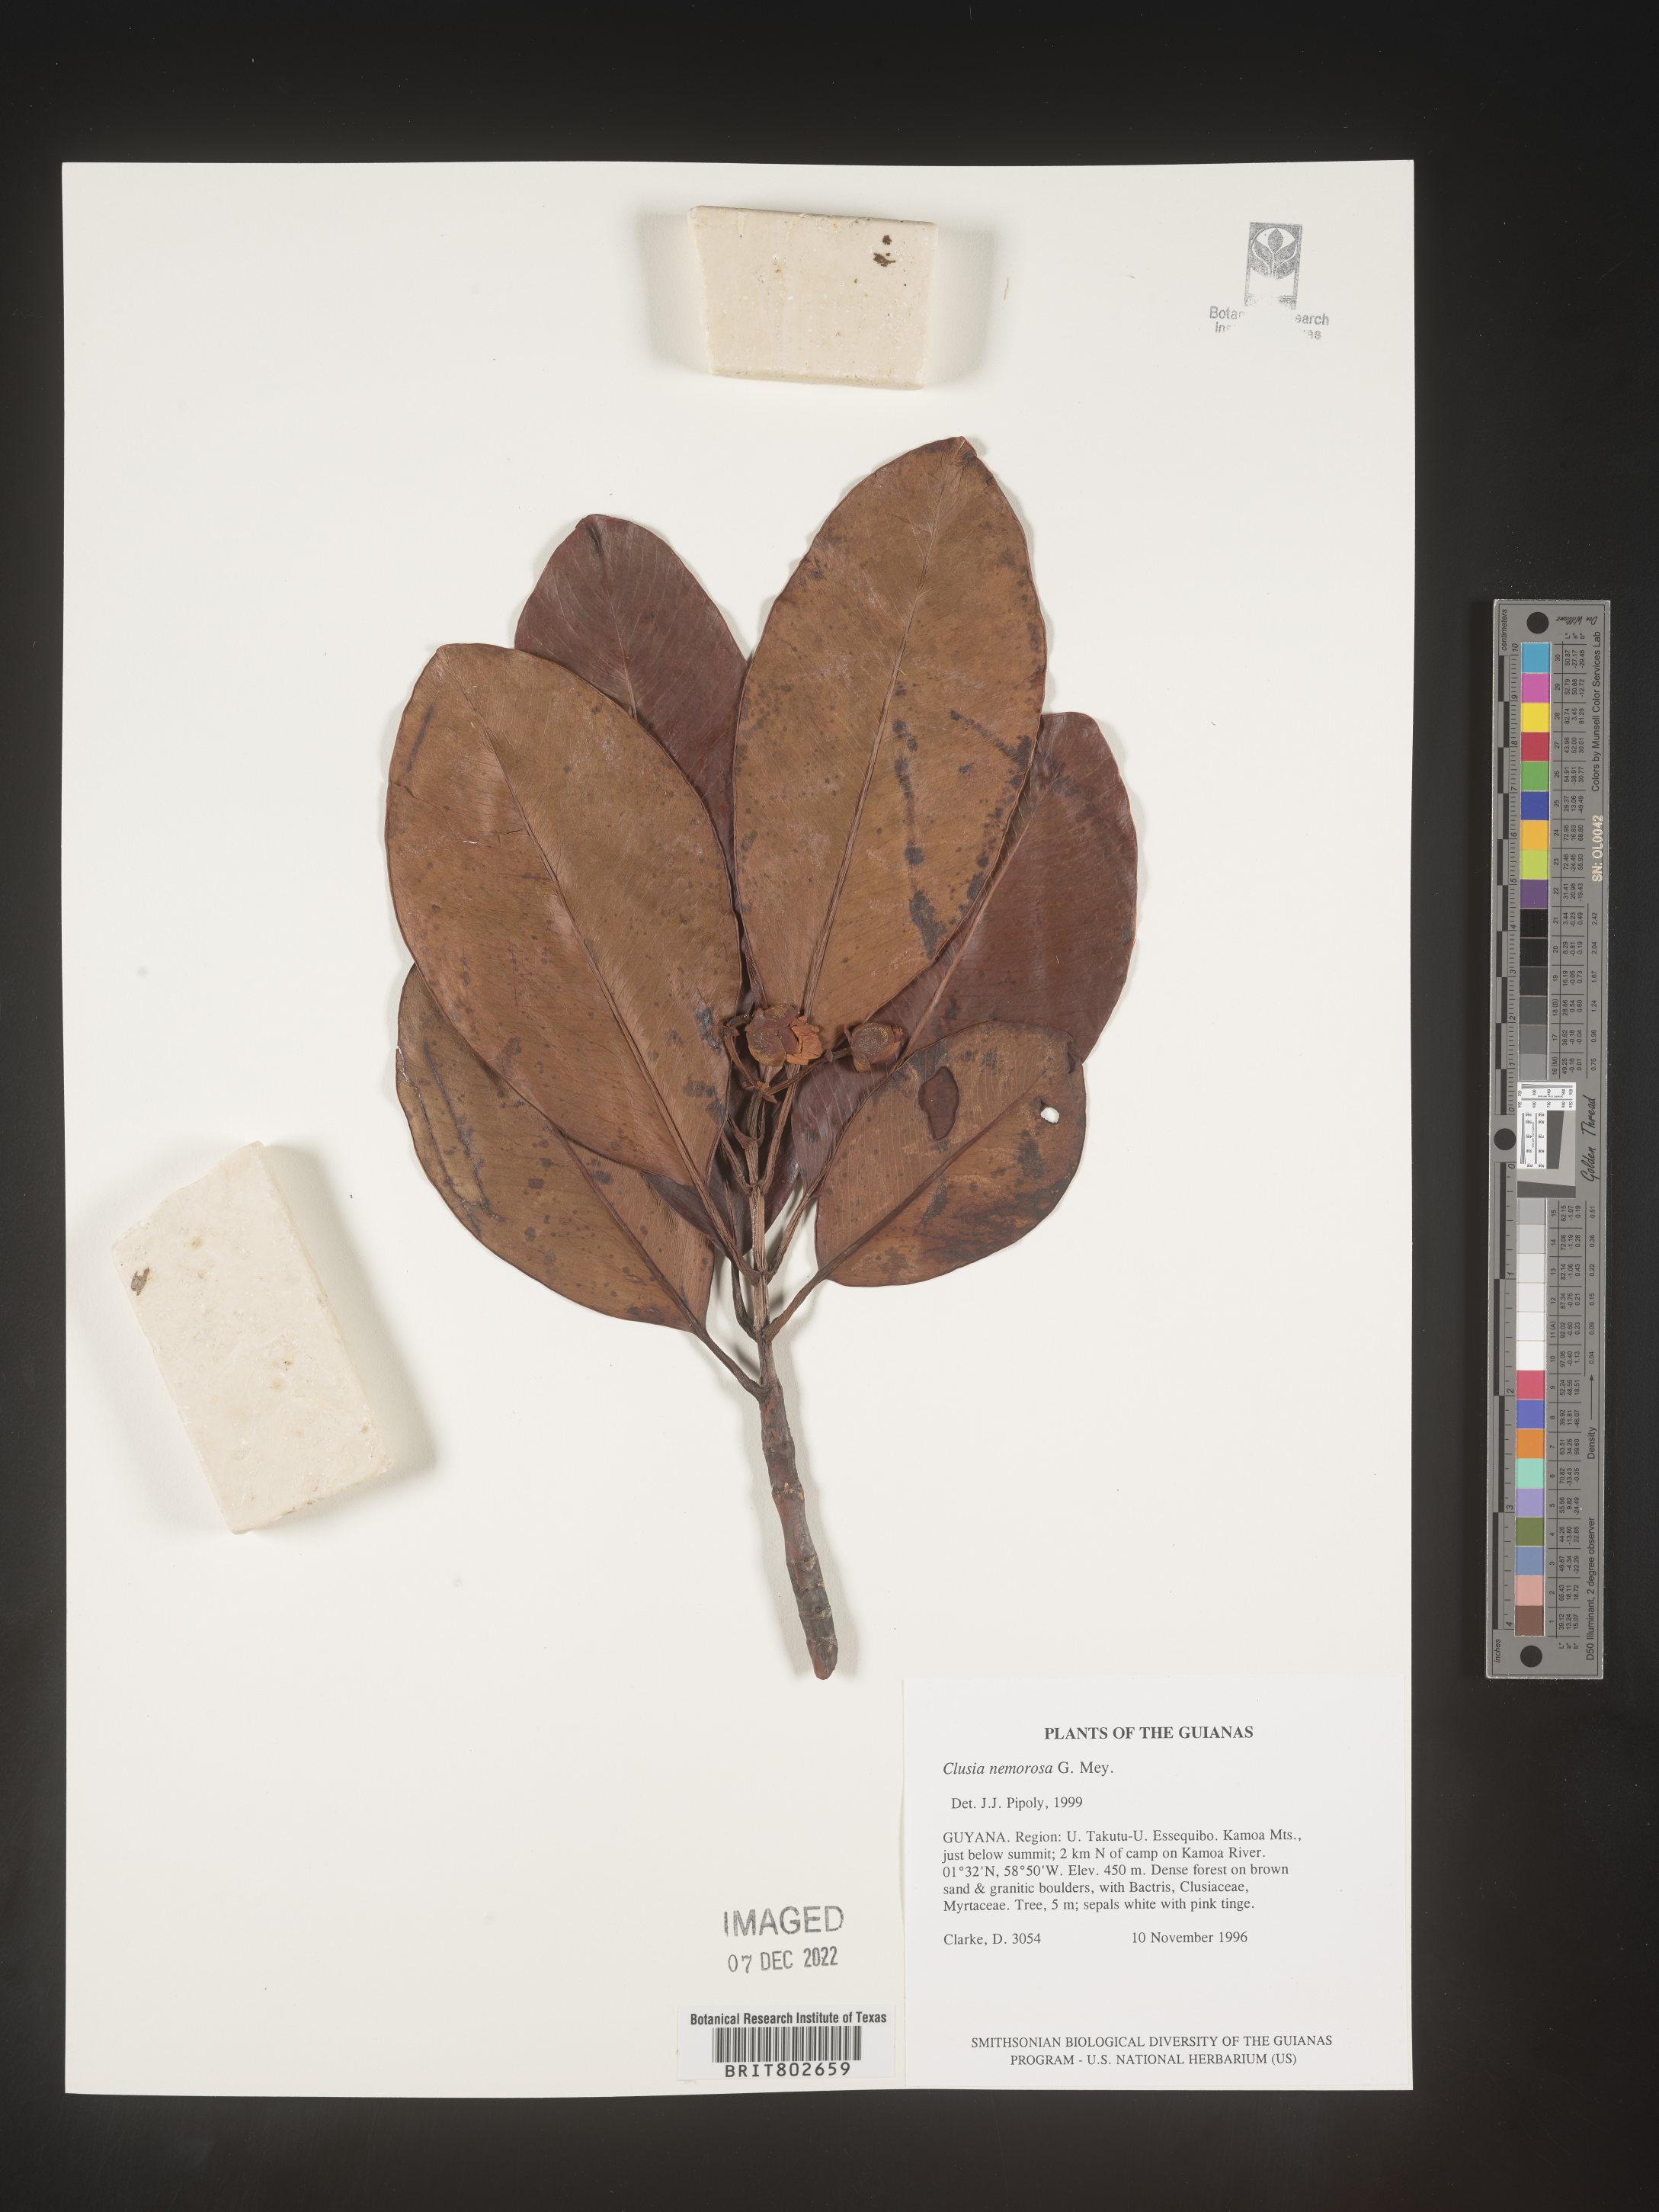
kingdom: Plantae
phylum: Tracheophyta
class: Magnoliopsida
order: Malpighiales
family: Clusiaceae
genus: Clusia
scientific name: Clusia nemorosa
